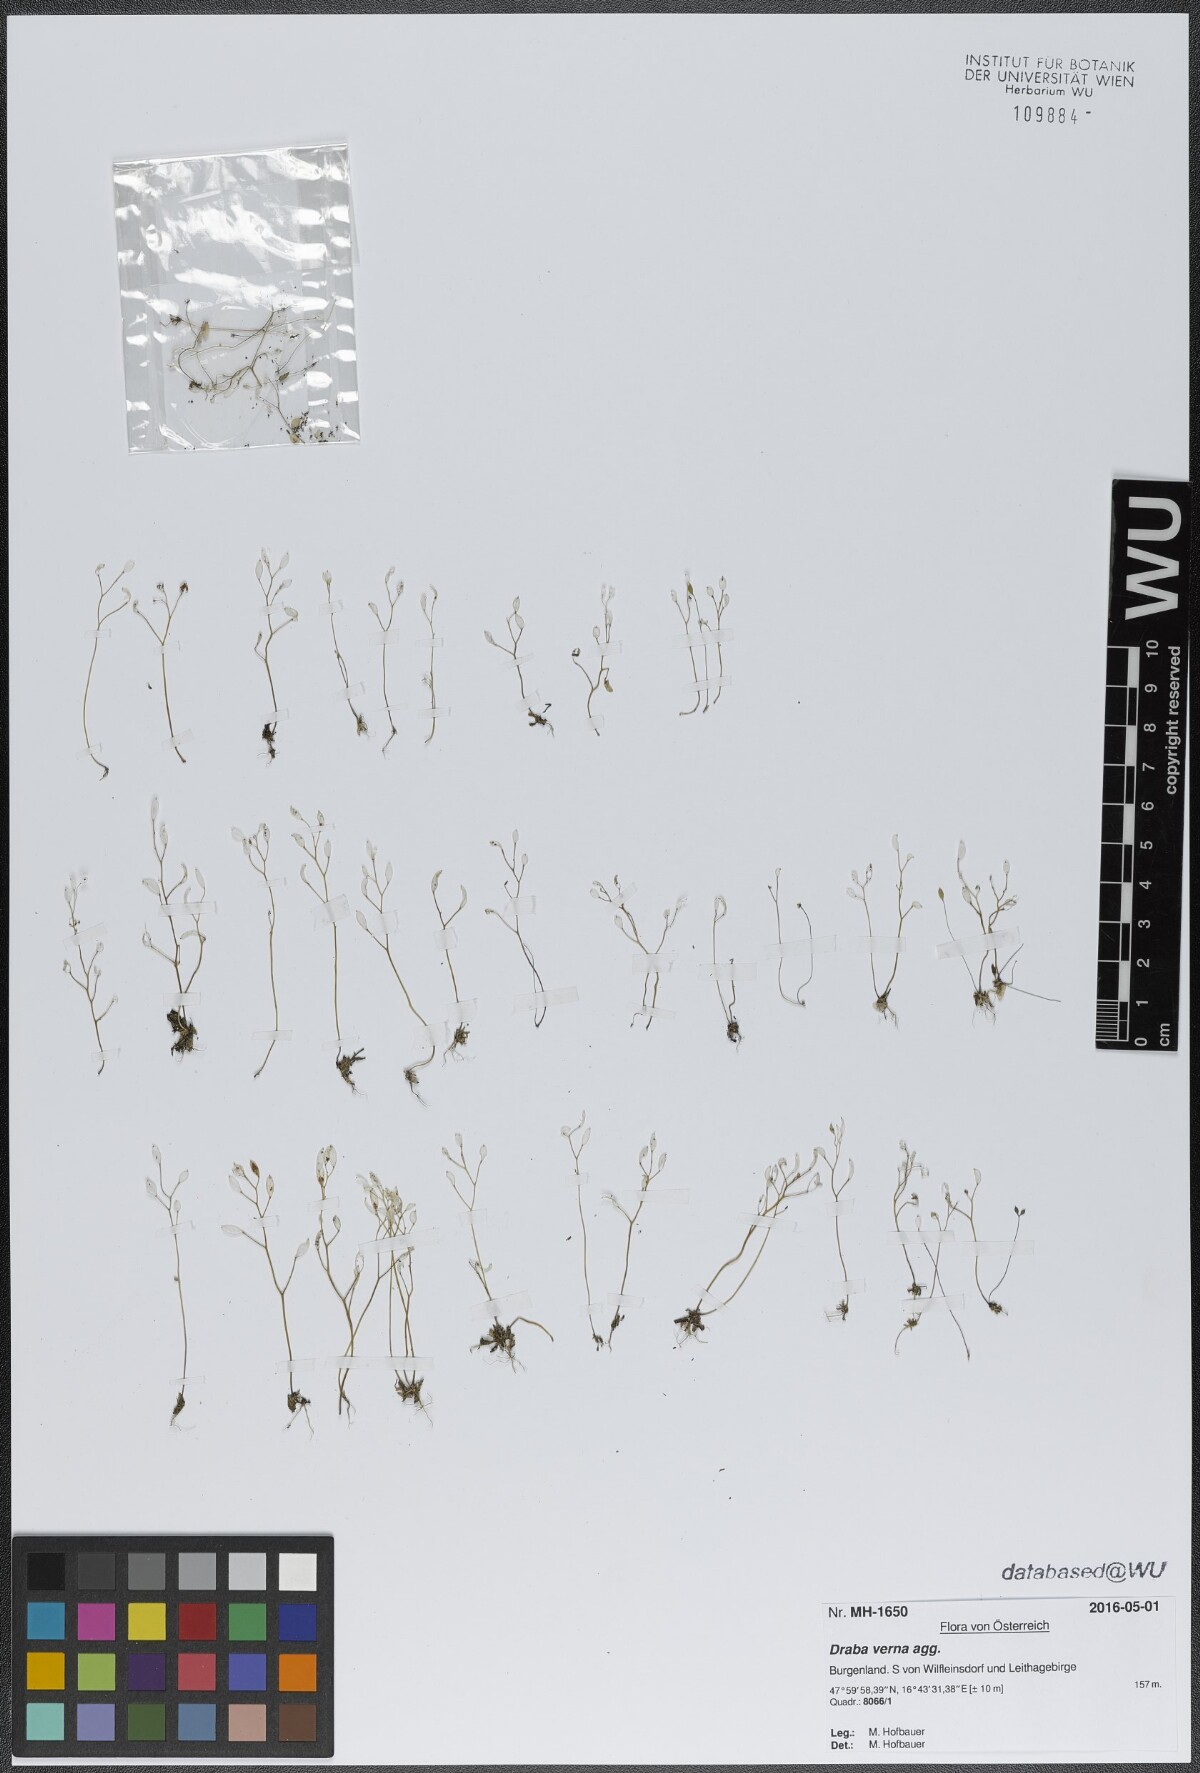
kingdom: Plantae
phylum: Tracheophyta
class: Magnoliopsida
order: Brassicales
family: Brassicaceae
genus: Draba
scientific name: Draba verna
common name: Spring draba
